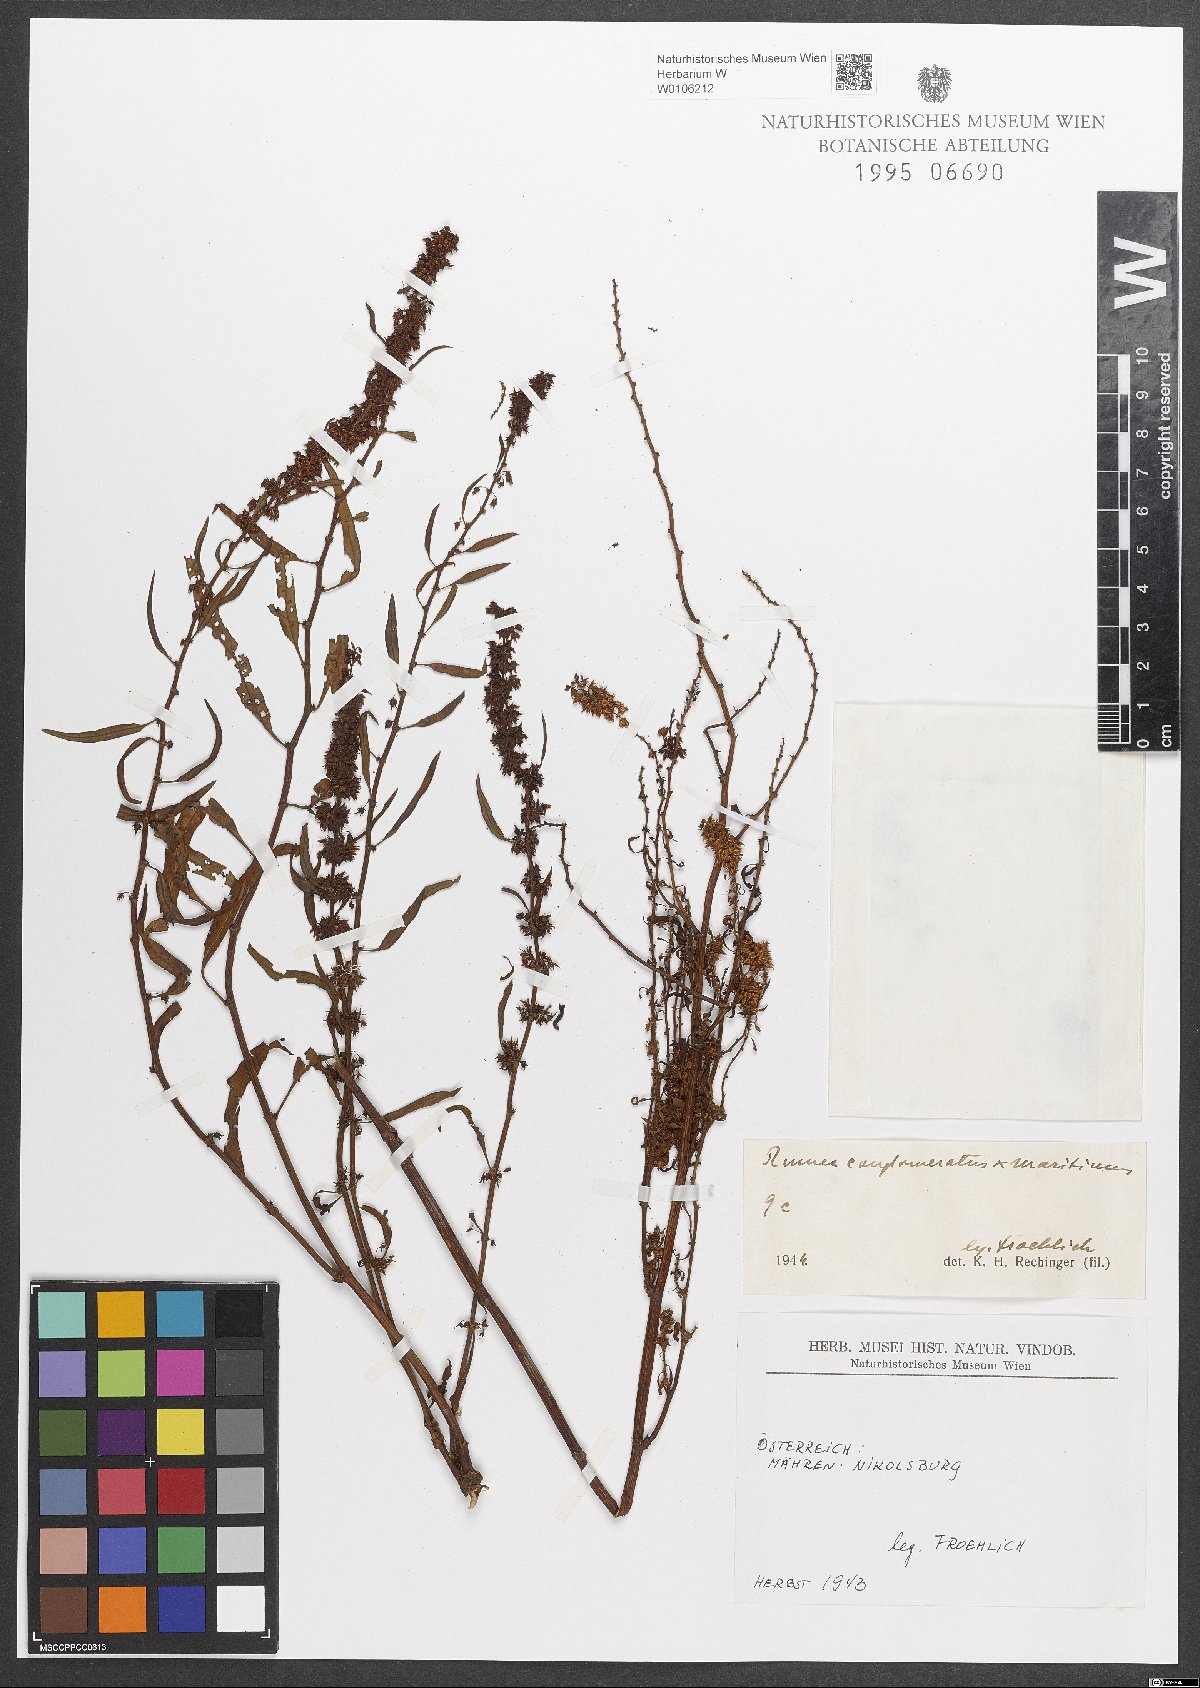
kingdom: Plantae
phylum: Tracheophyta
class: Magnoliopsida
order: Caryophyllales
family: Polygonaceae
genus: Rumex
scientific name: Rumex
